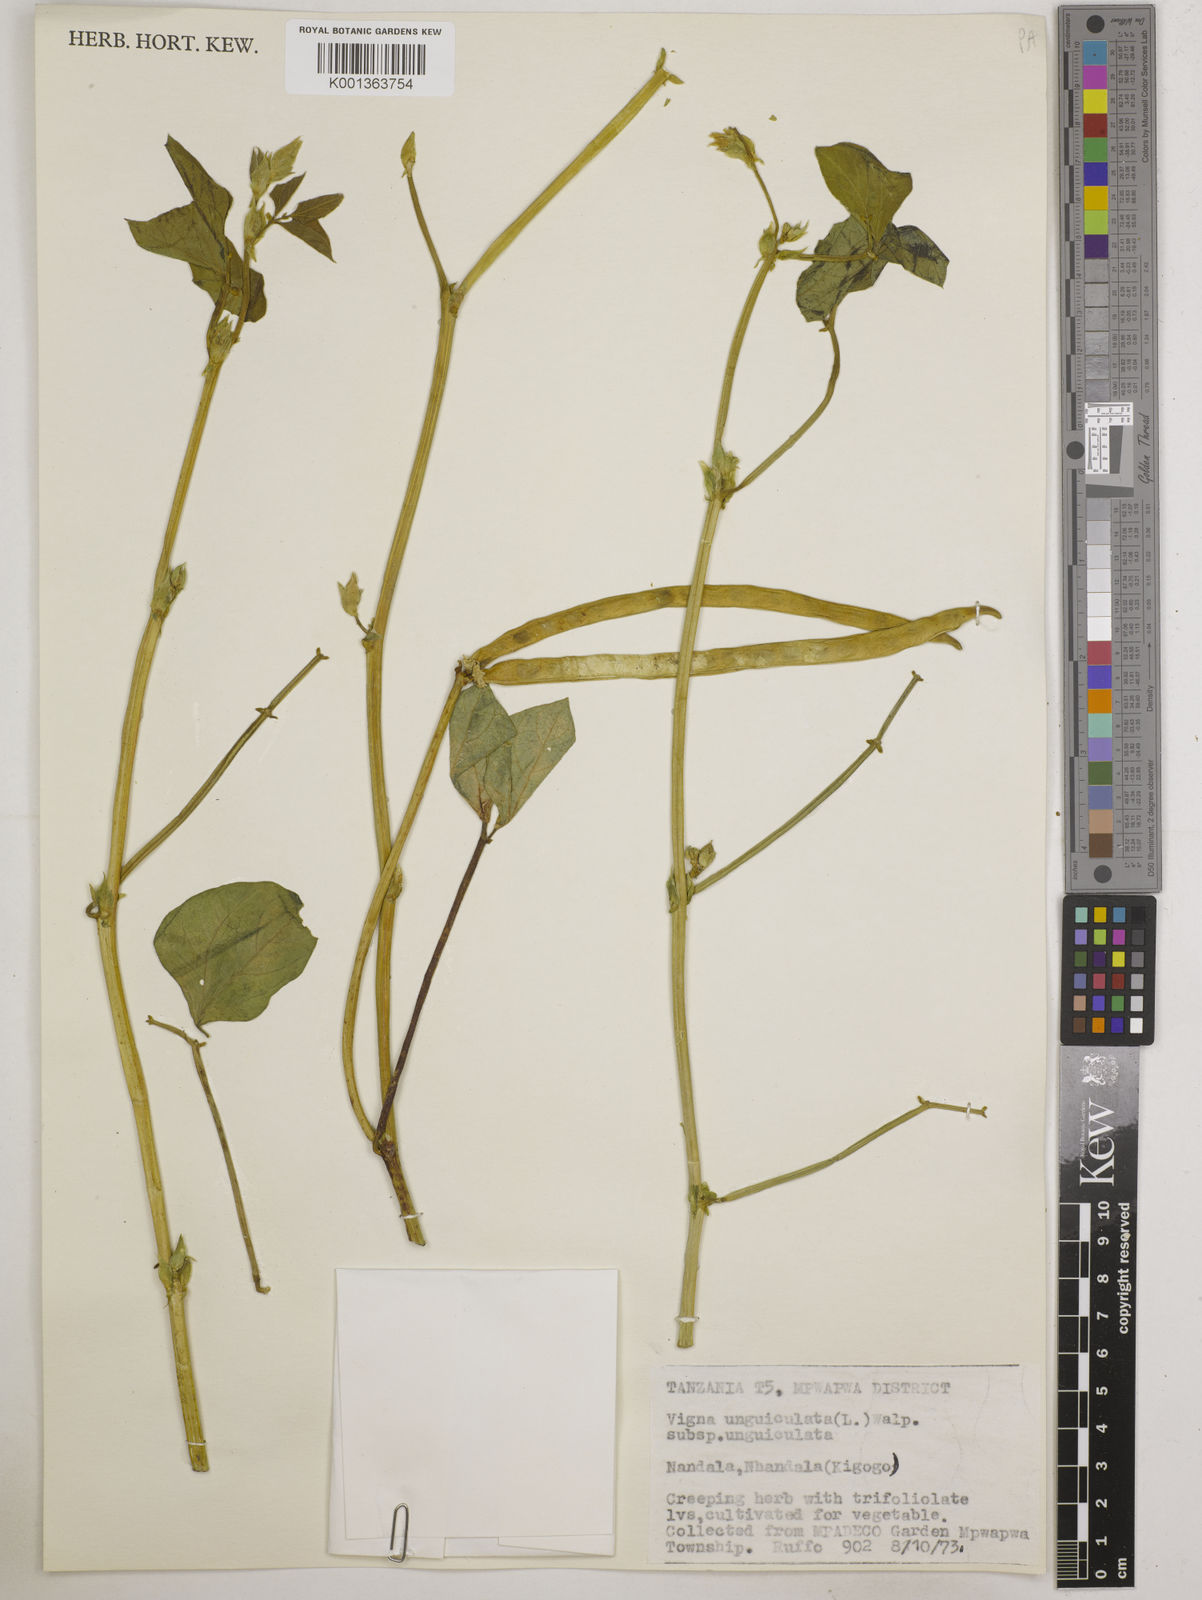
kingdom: Plantae
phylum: Tracheophyta
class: Magnoliopsida
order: Fabales
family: Fabaceae
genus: Vigna
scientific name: Vigna unguiculata
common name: Cowpea
